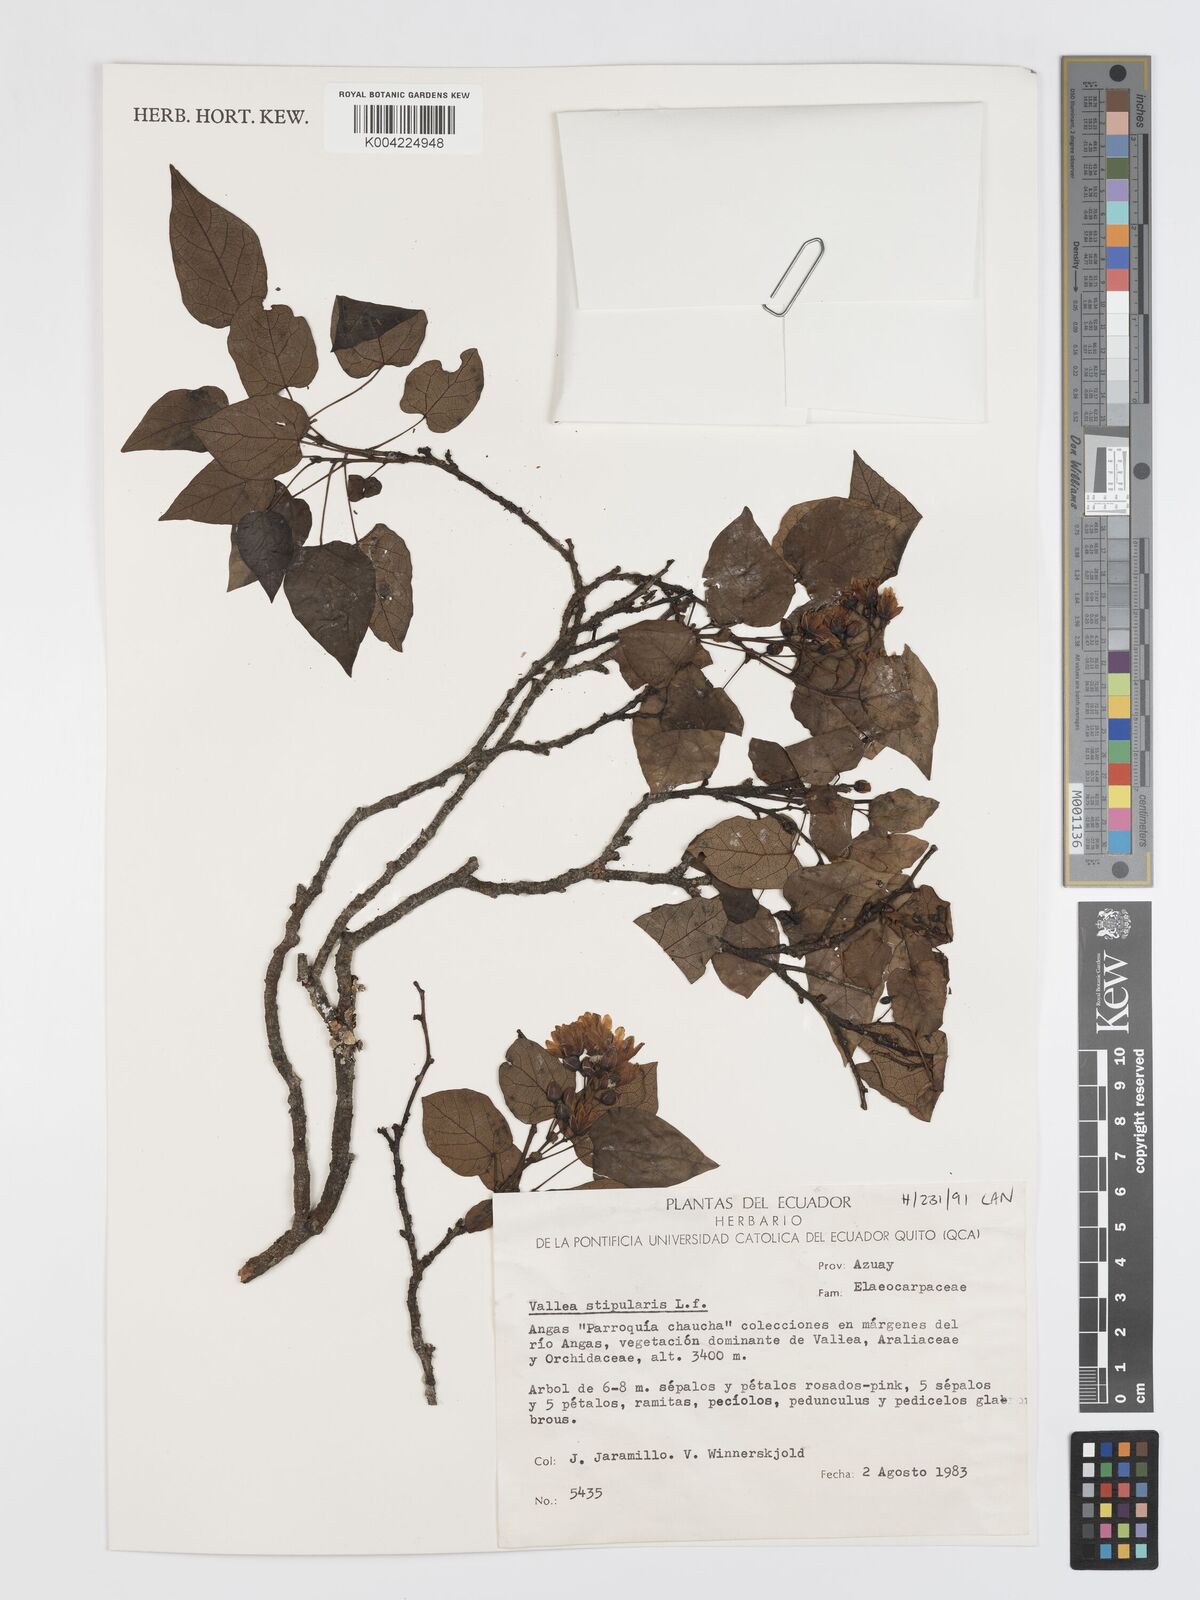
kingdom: Plantae
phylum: Tracheophyta
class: Magnoliopsida
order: Oxalidales
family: Elaeocarpaceae
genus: Vallea
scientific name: Vallea stipularis
